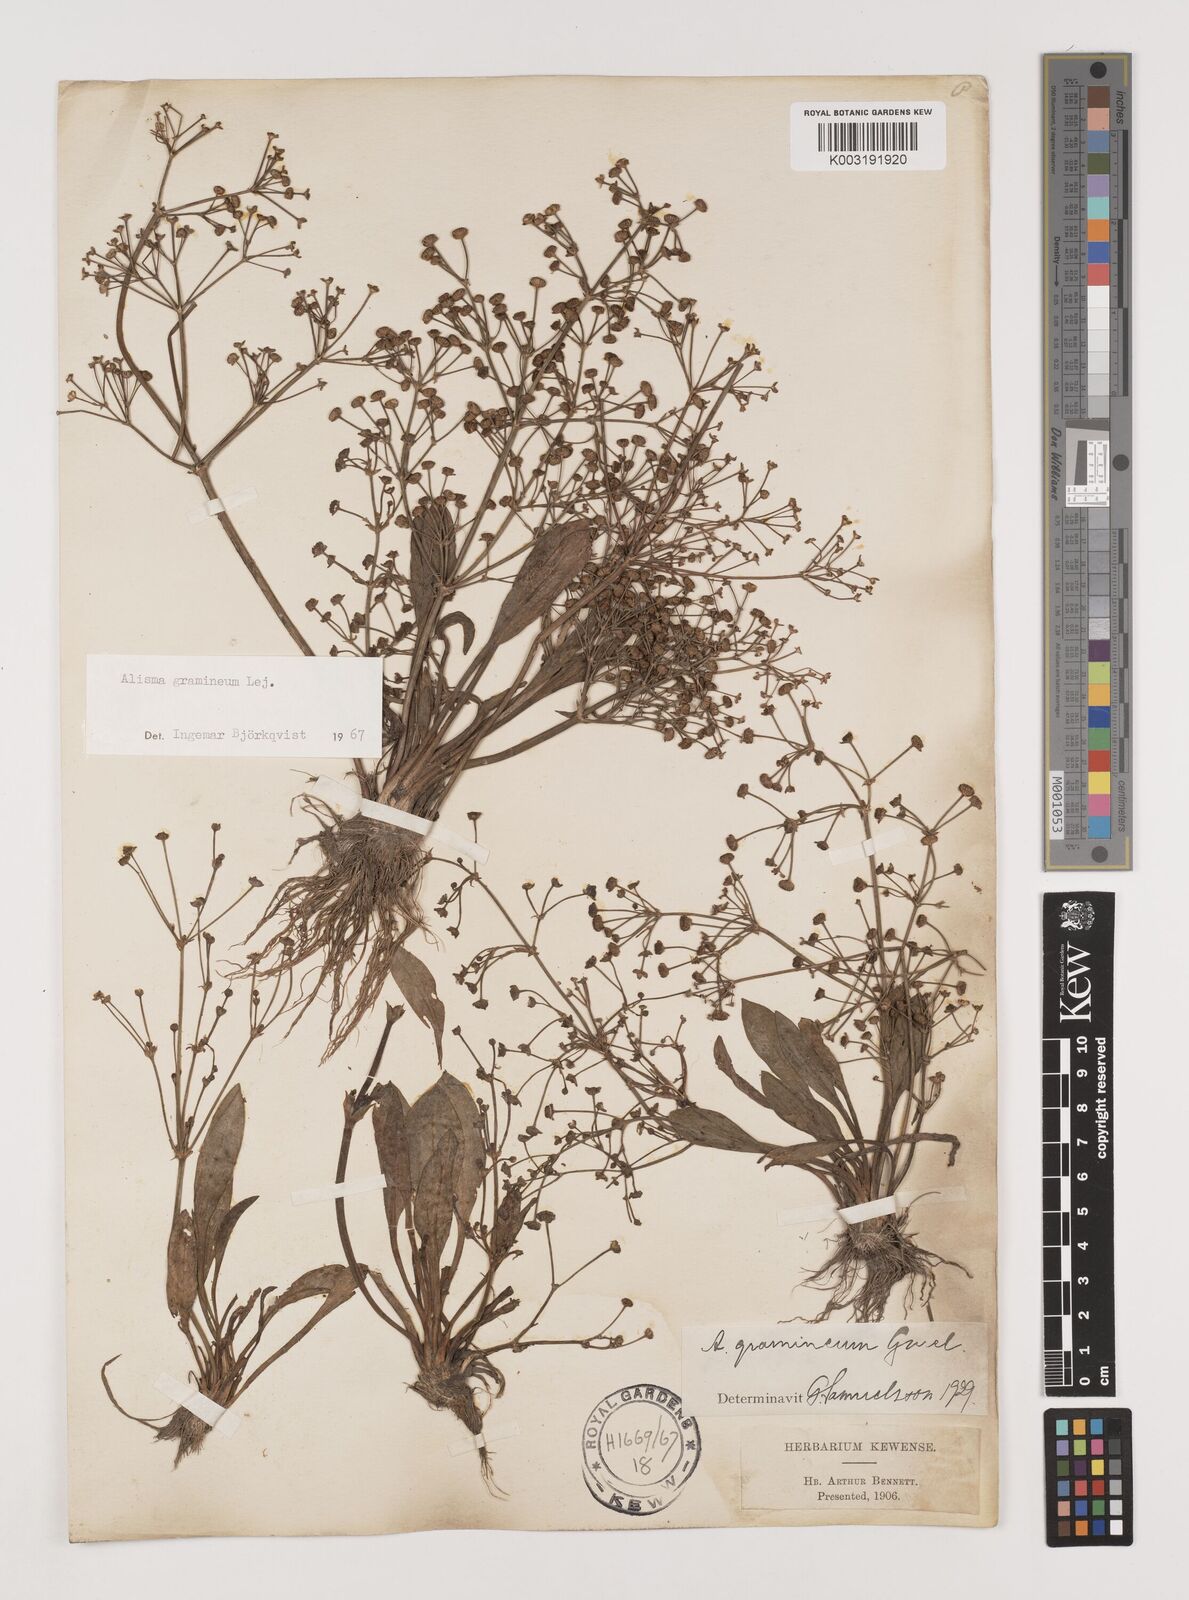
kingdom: Plantae
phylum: Tracheophyta
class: Liliopsida
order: Alismatales
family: Alismataceae
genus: Alisma
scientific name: Alisma gramineum
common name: Ribbon-leaved water-plantain
